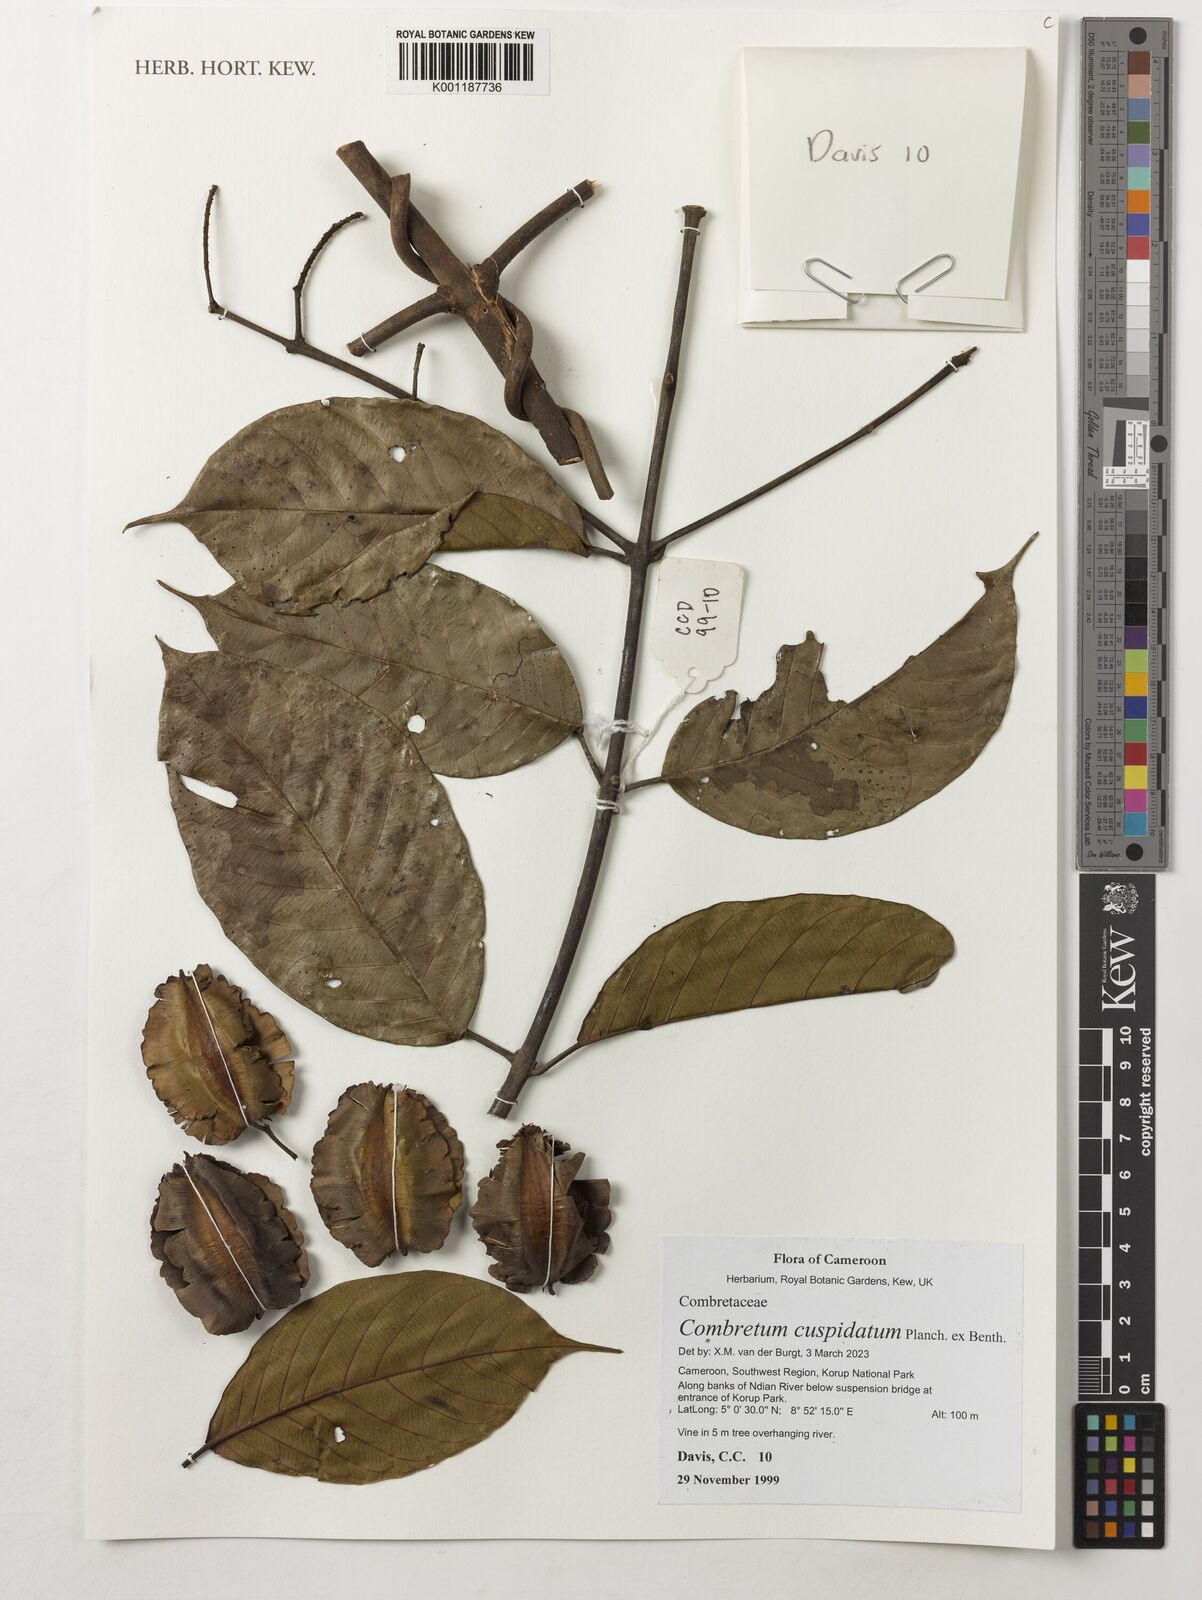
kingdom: Plantae
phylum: Tracheophyta
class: Magnoliopsida
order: Myrtales
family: Combretaceae
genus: Combretum
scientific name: Combretum cuspidatum
